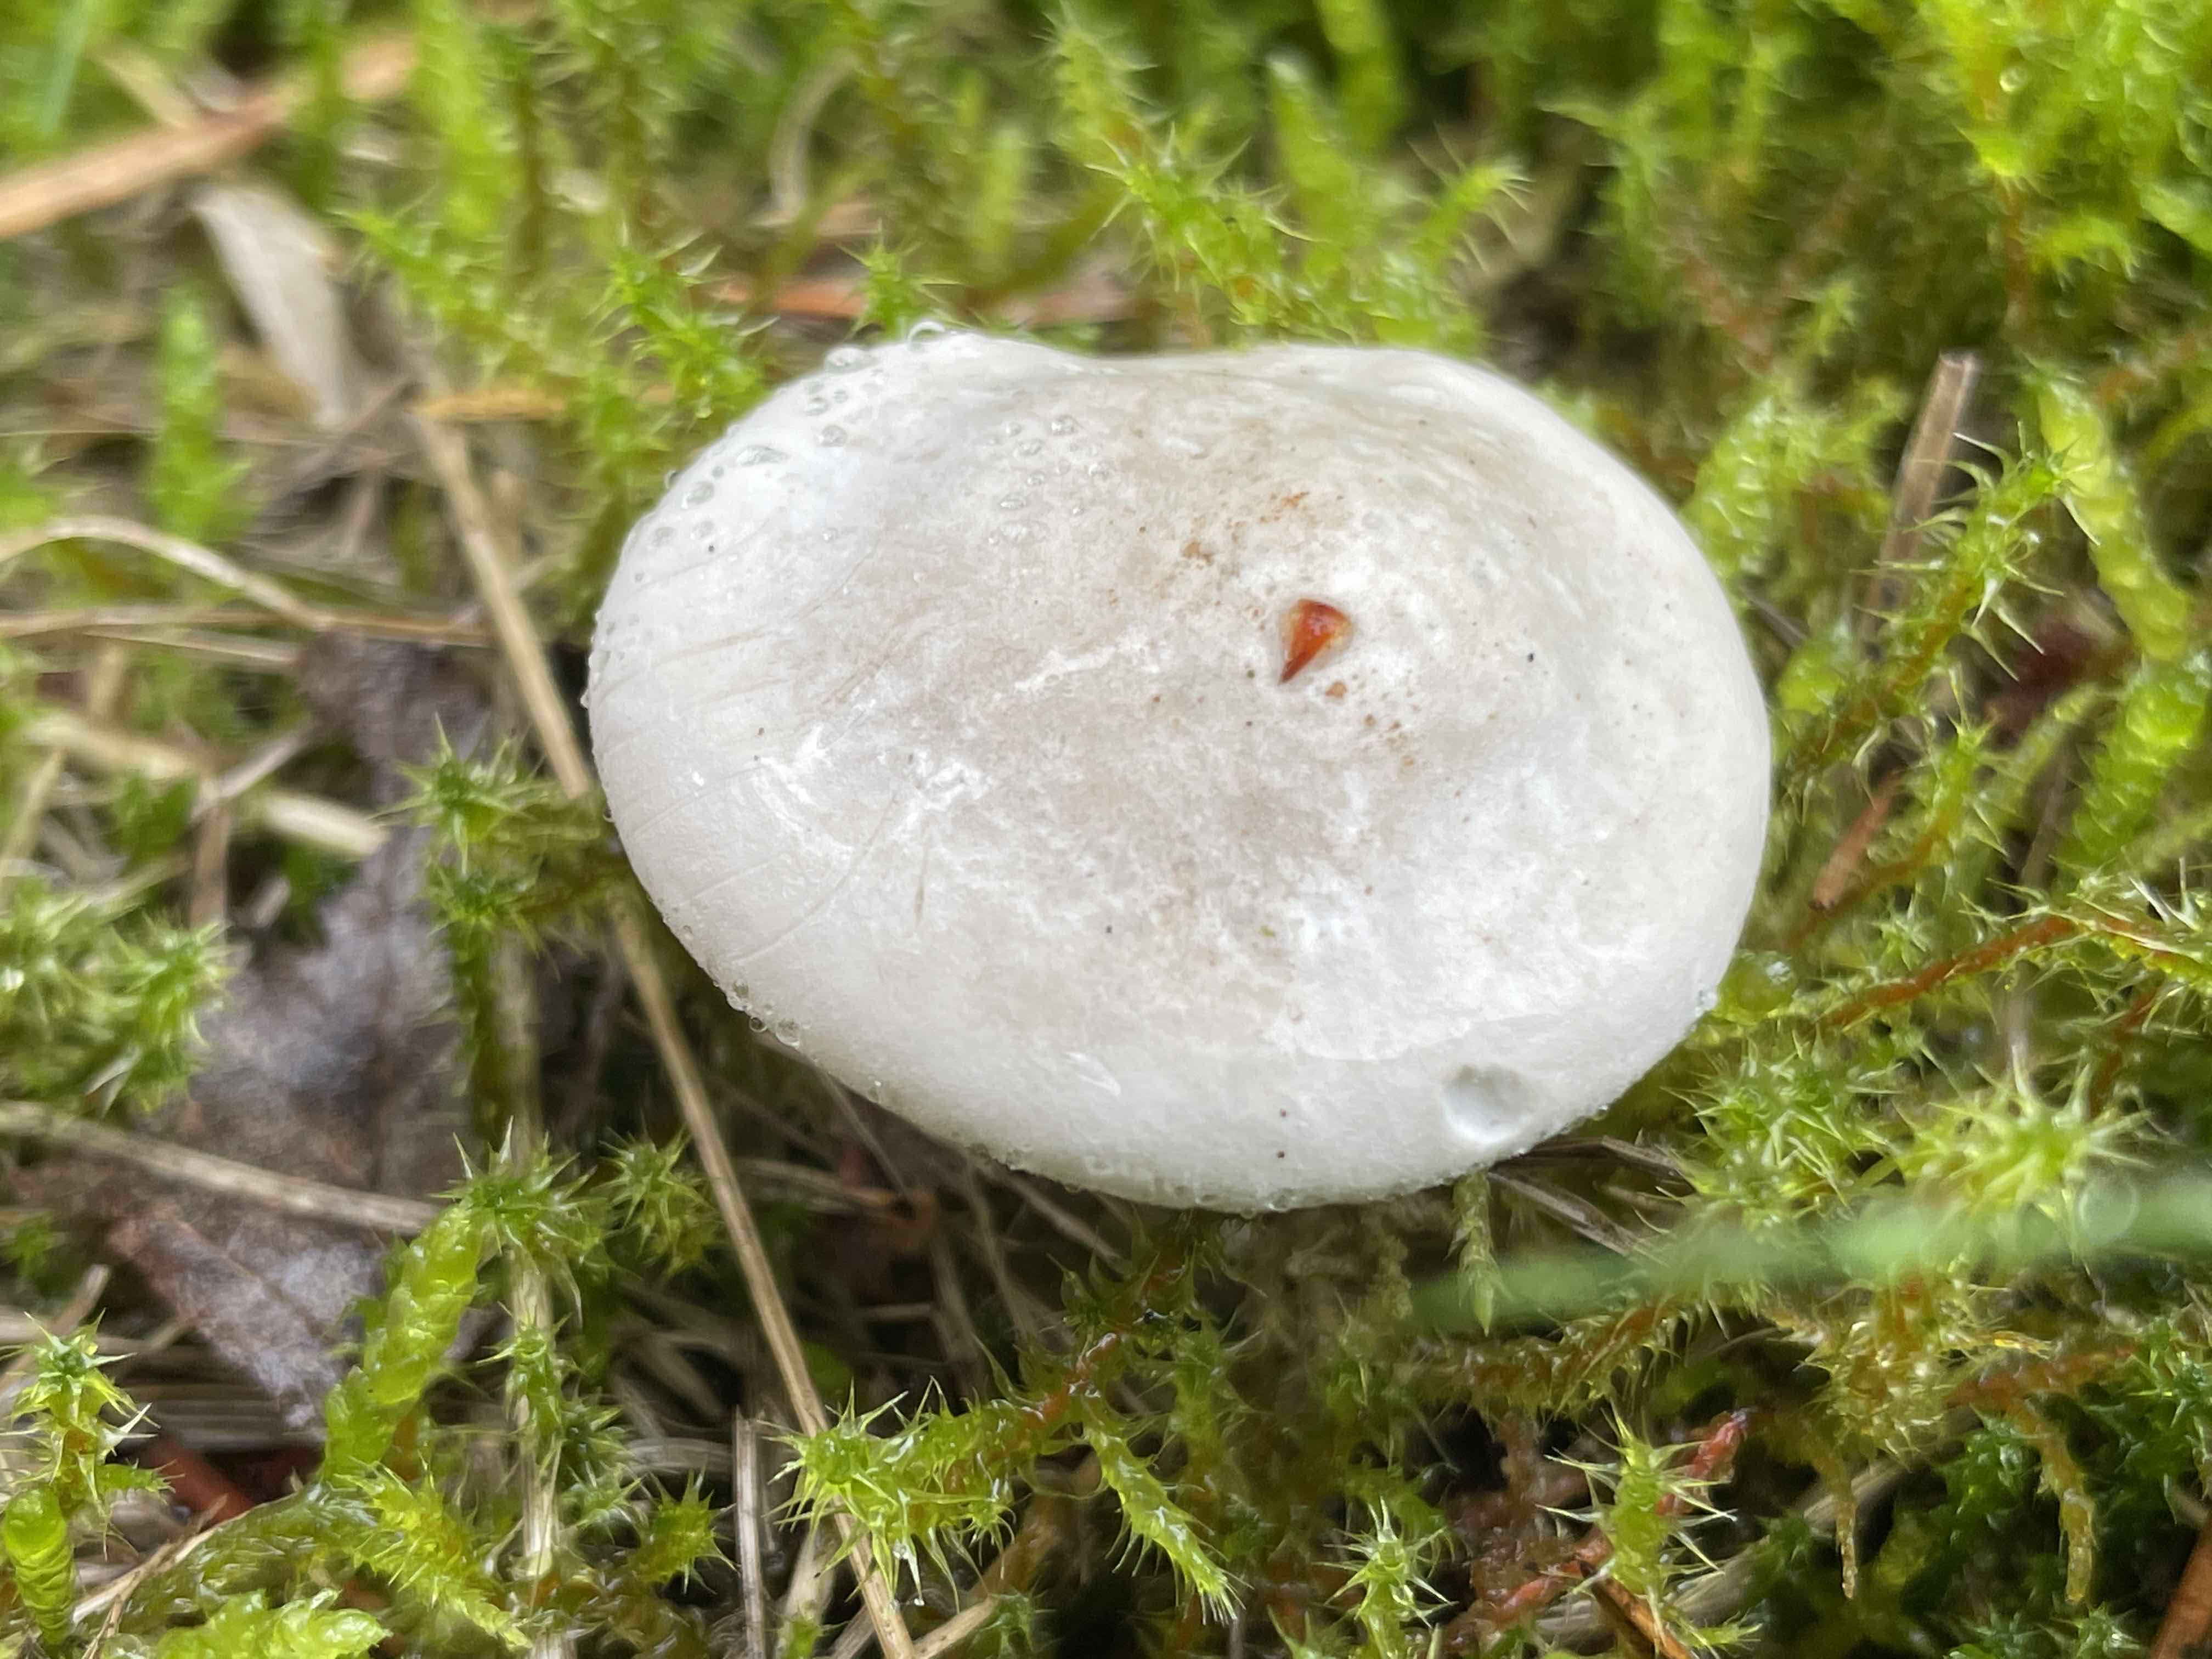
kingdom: Fungi
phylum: Basidiomycota
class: Agaricomycetes
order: Agaricales
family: Entolomataceae
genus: Clitopilus
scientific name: Clitopilus prunulus
